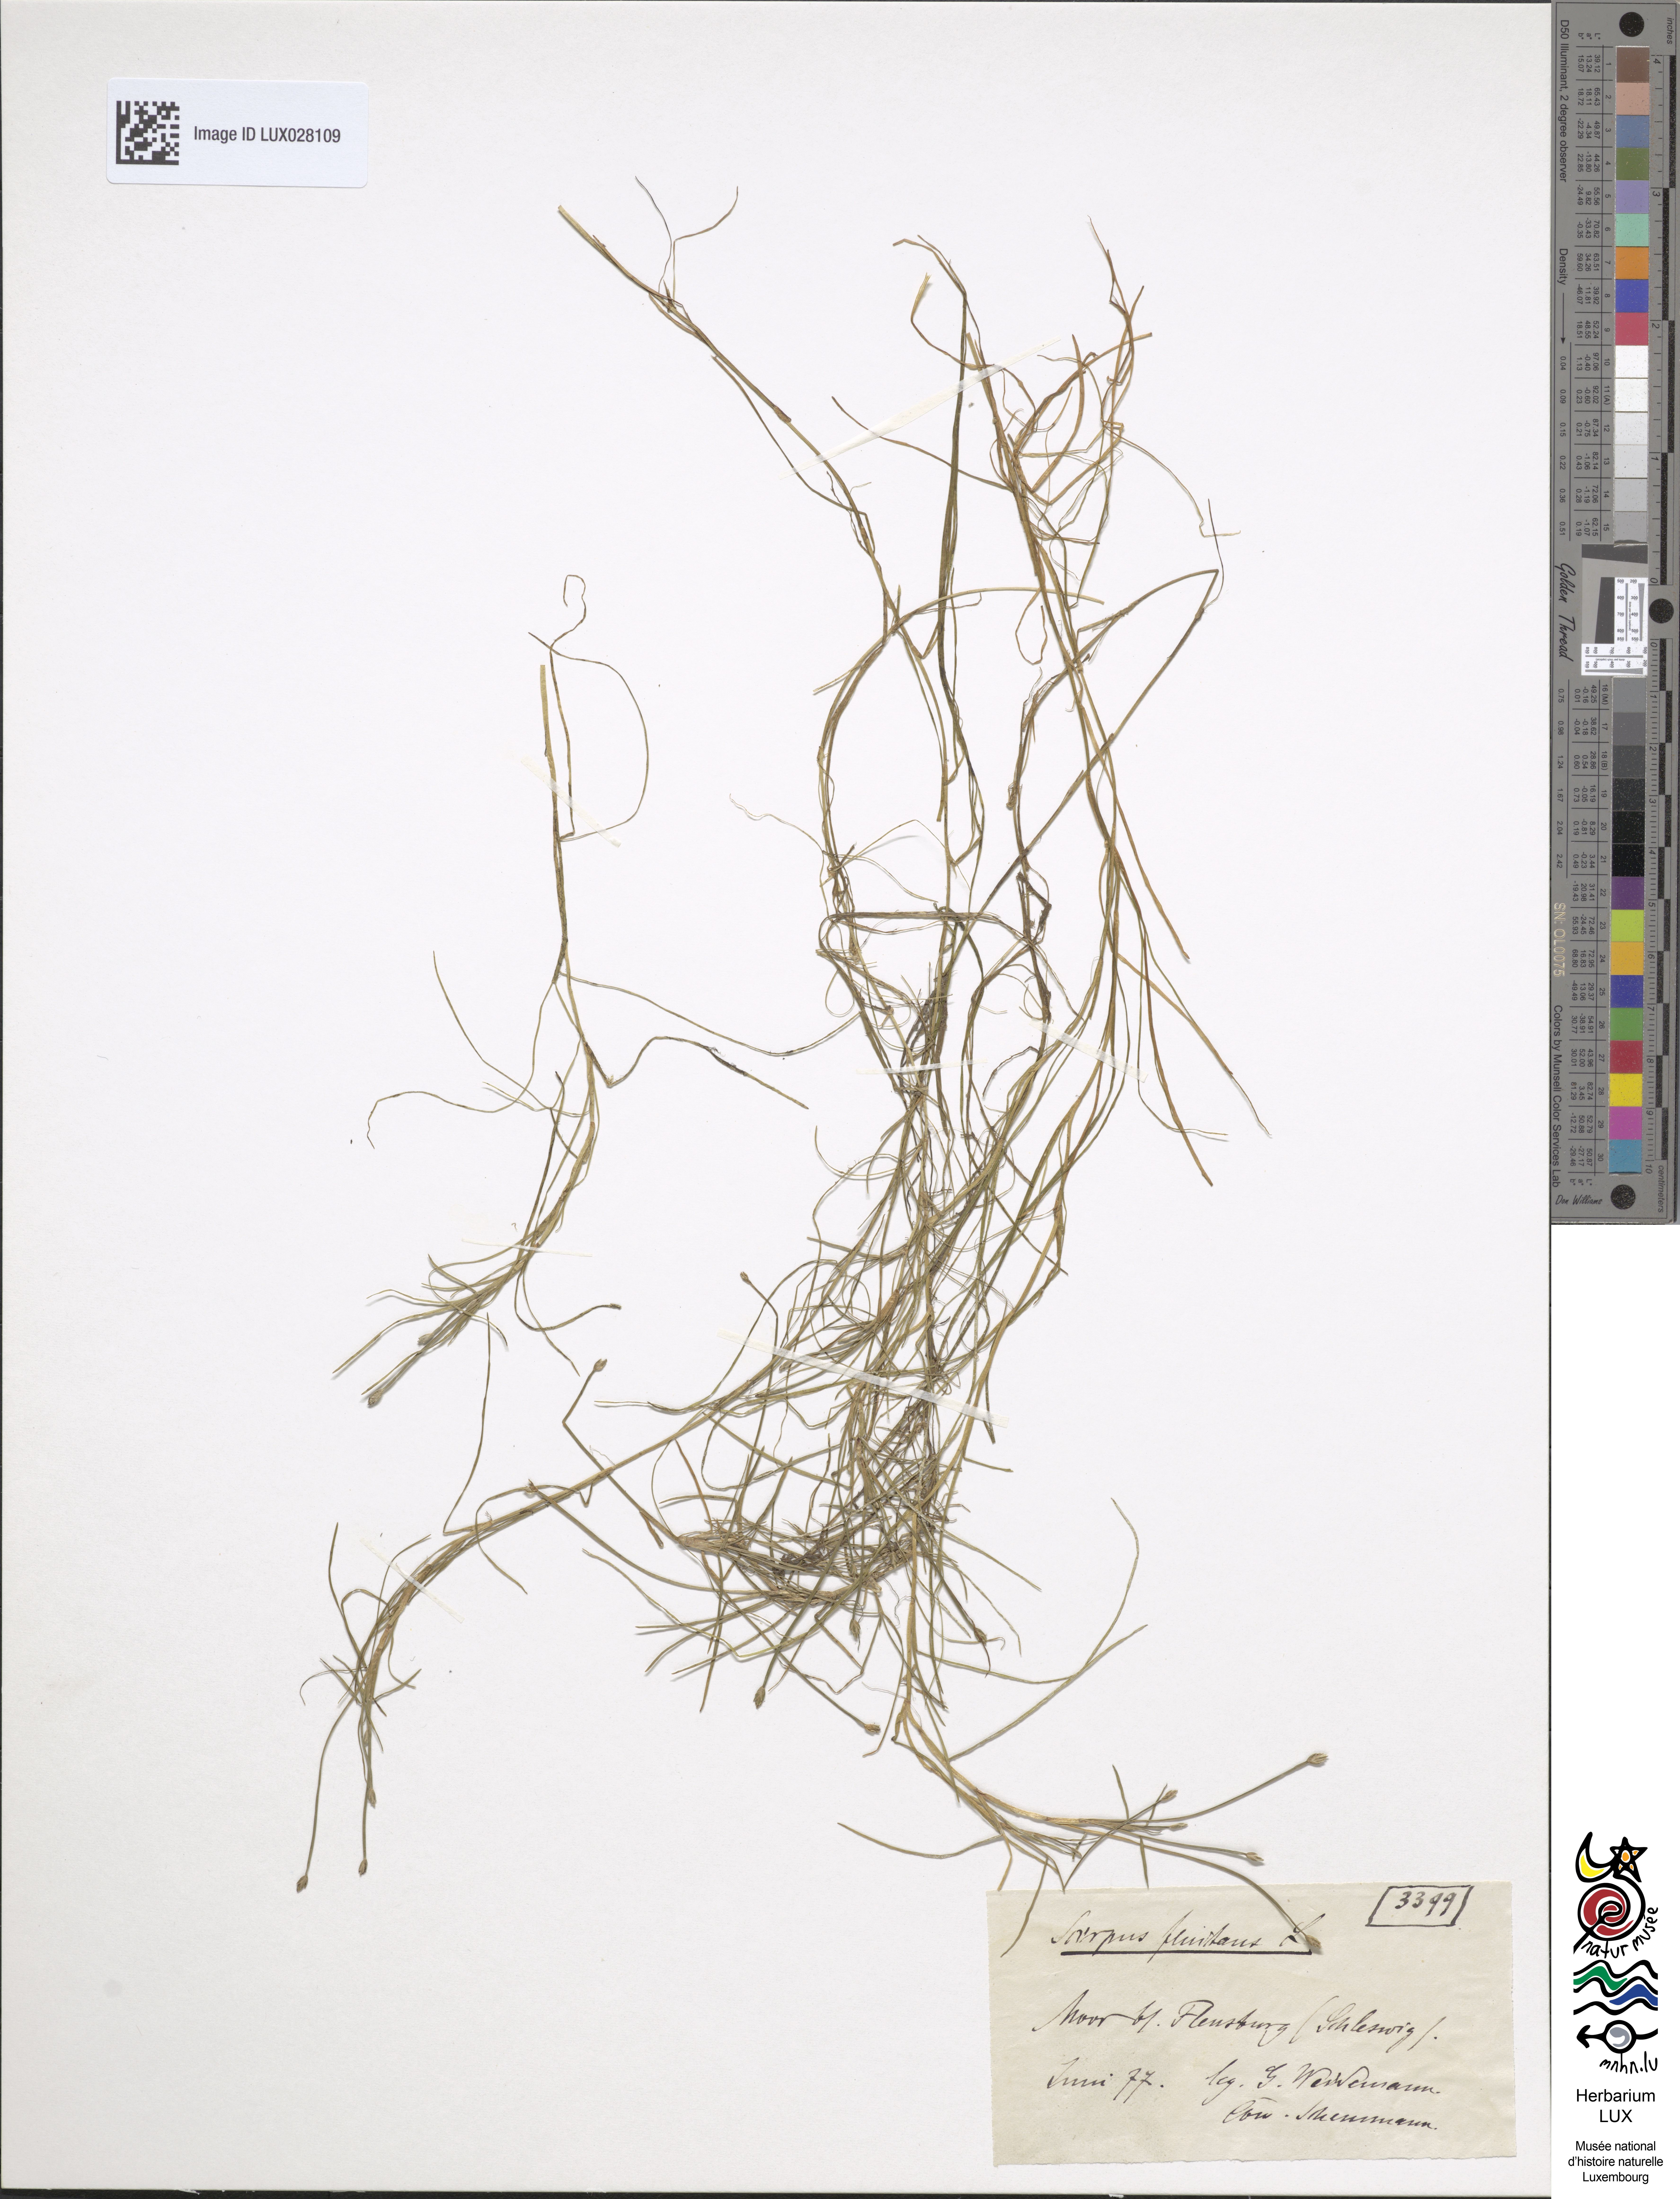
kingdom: Plantae
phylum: Tracheophyta
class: Liliopsida
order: Poales
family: Cyperaceae
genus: Isolepis
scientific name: Isolepis fluitans
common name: Floating club-rush
